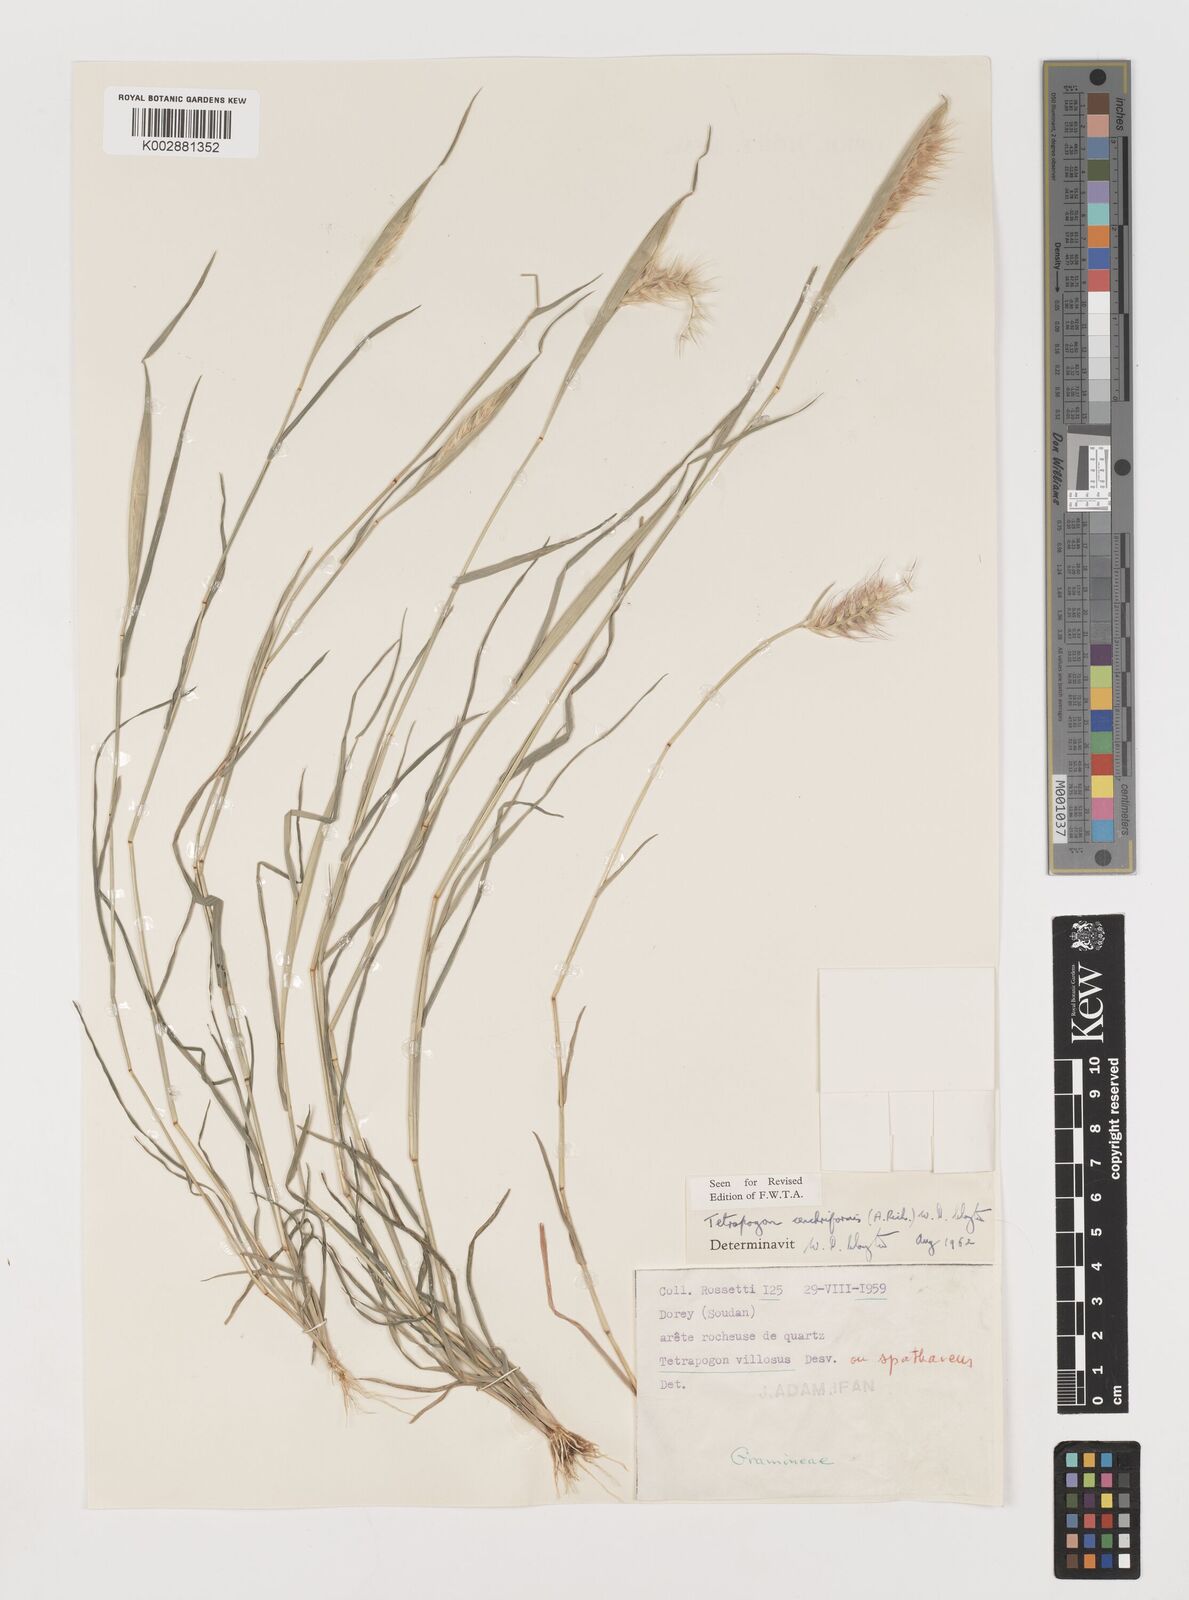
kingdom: Plantae
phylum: Tracheophyta
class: Liliopsida
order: Poales
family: Poaceae
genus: Tetrapogon
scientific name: Tetrapogon cenchriformis
